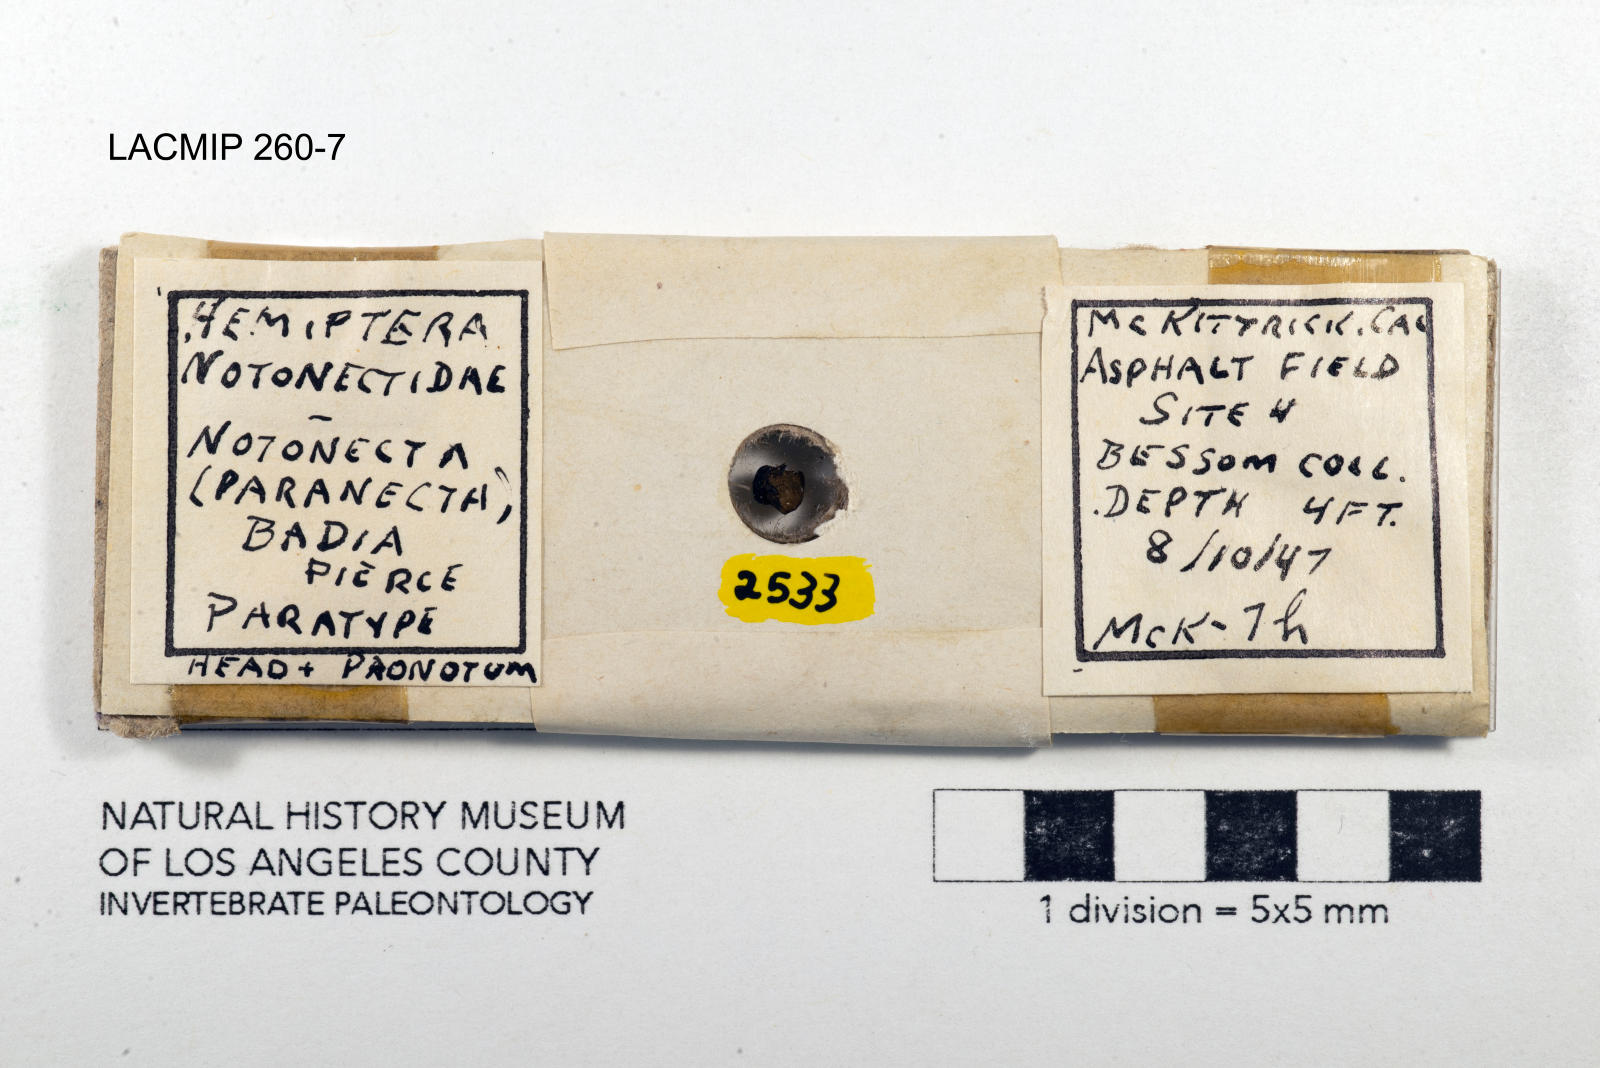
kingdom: Animalia
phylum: Arthropoda
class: Insecta
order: Hemiptera
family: Notonectidae
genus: Notonecta
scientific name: Notonecta unifasciata
